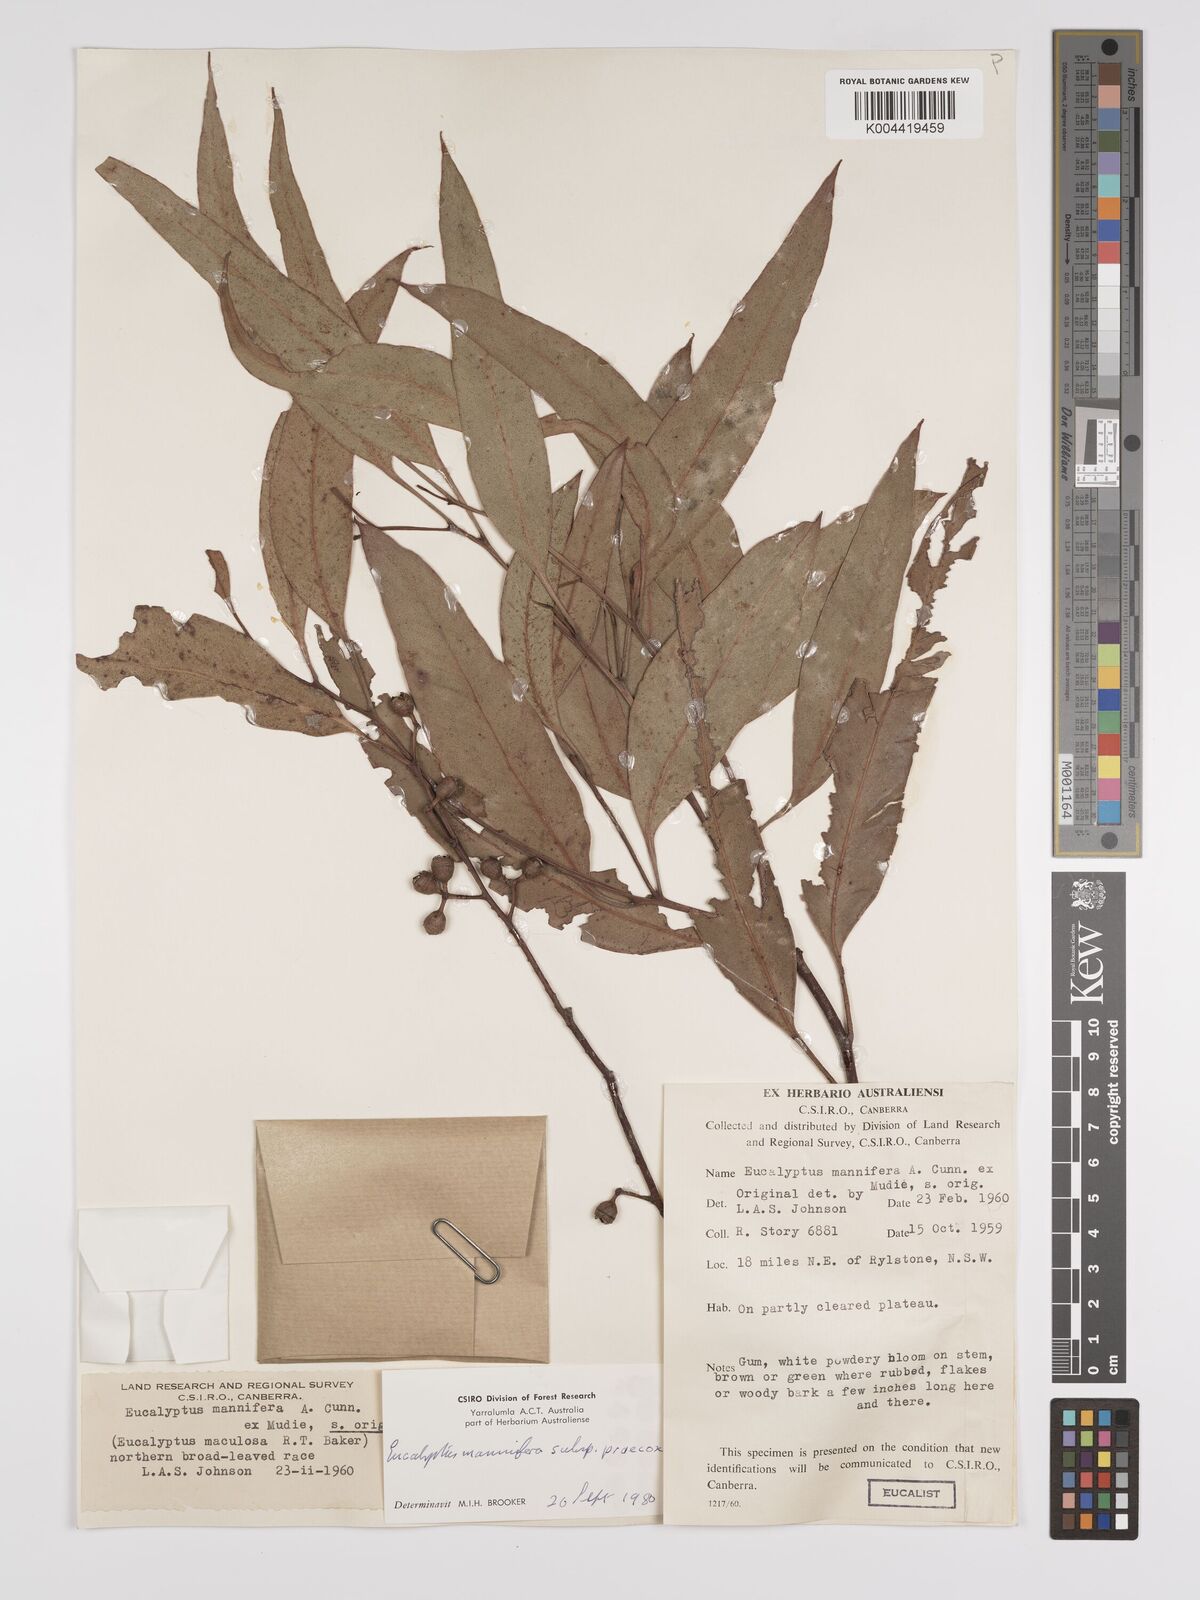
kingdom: Plantae
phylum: Tracheophyta
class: Magnoliopsida
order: Myrtales
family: Myrtaceae
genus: Eucalyptus
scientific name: Eucalyptus mannifera
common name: Manna gum
